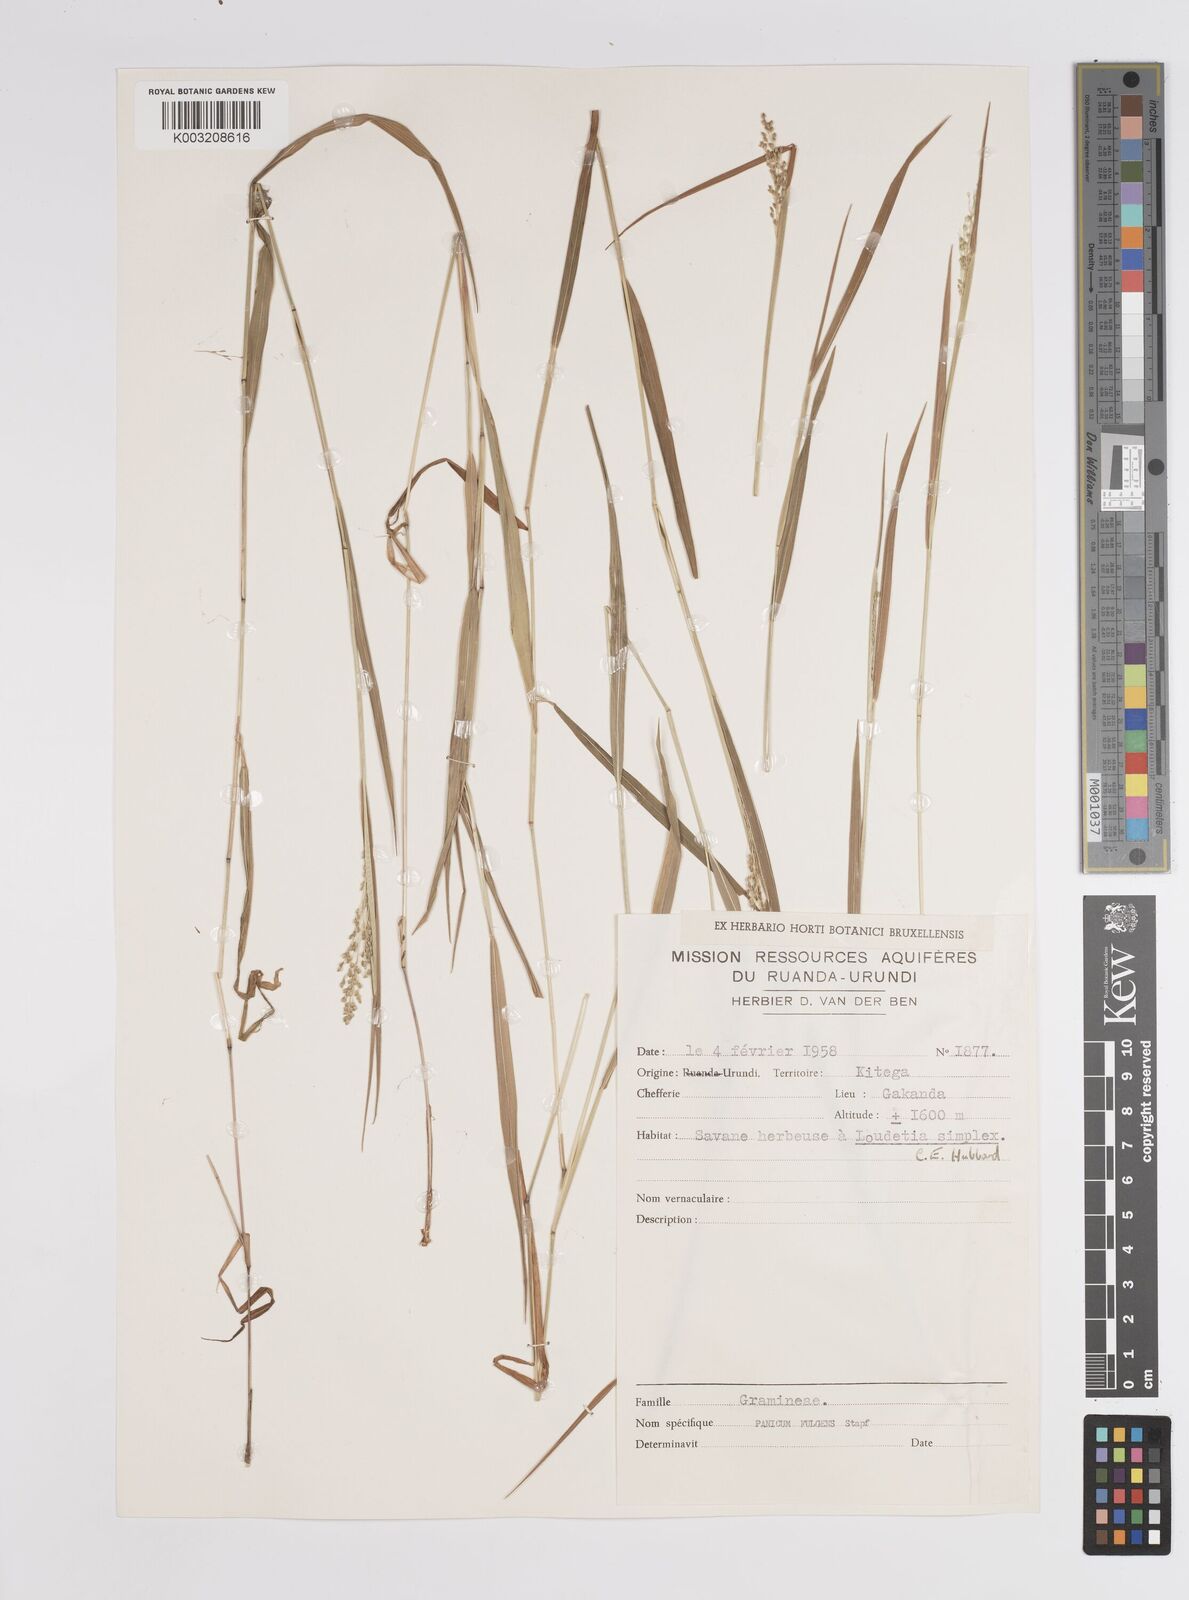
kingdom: Plantae
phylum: Tracheophyta
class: Liliopsida
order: Poales
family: Poaceae
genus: Trichanthecium
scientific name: Trichanthecium nervatum
